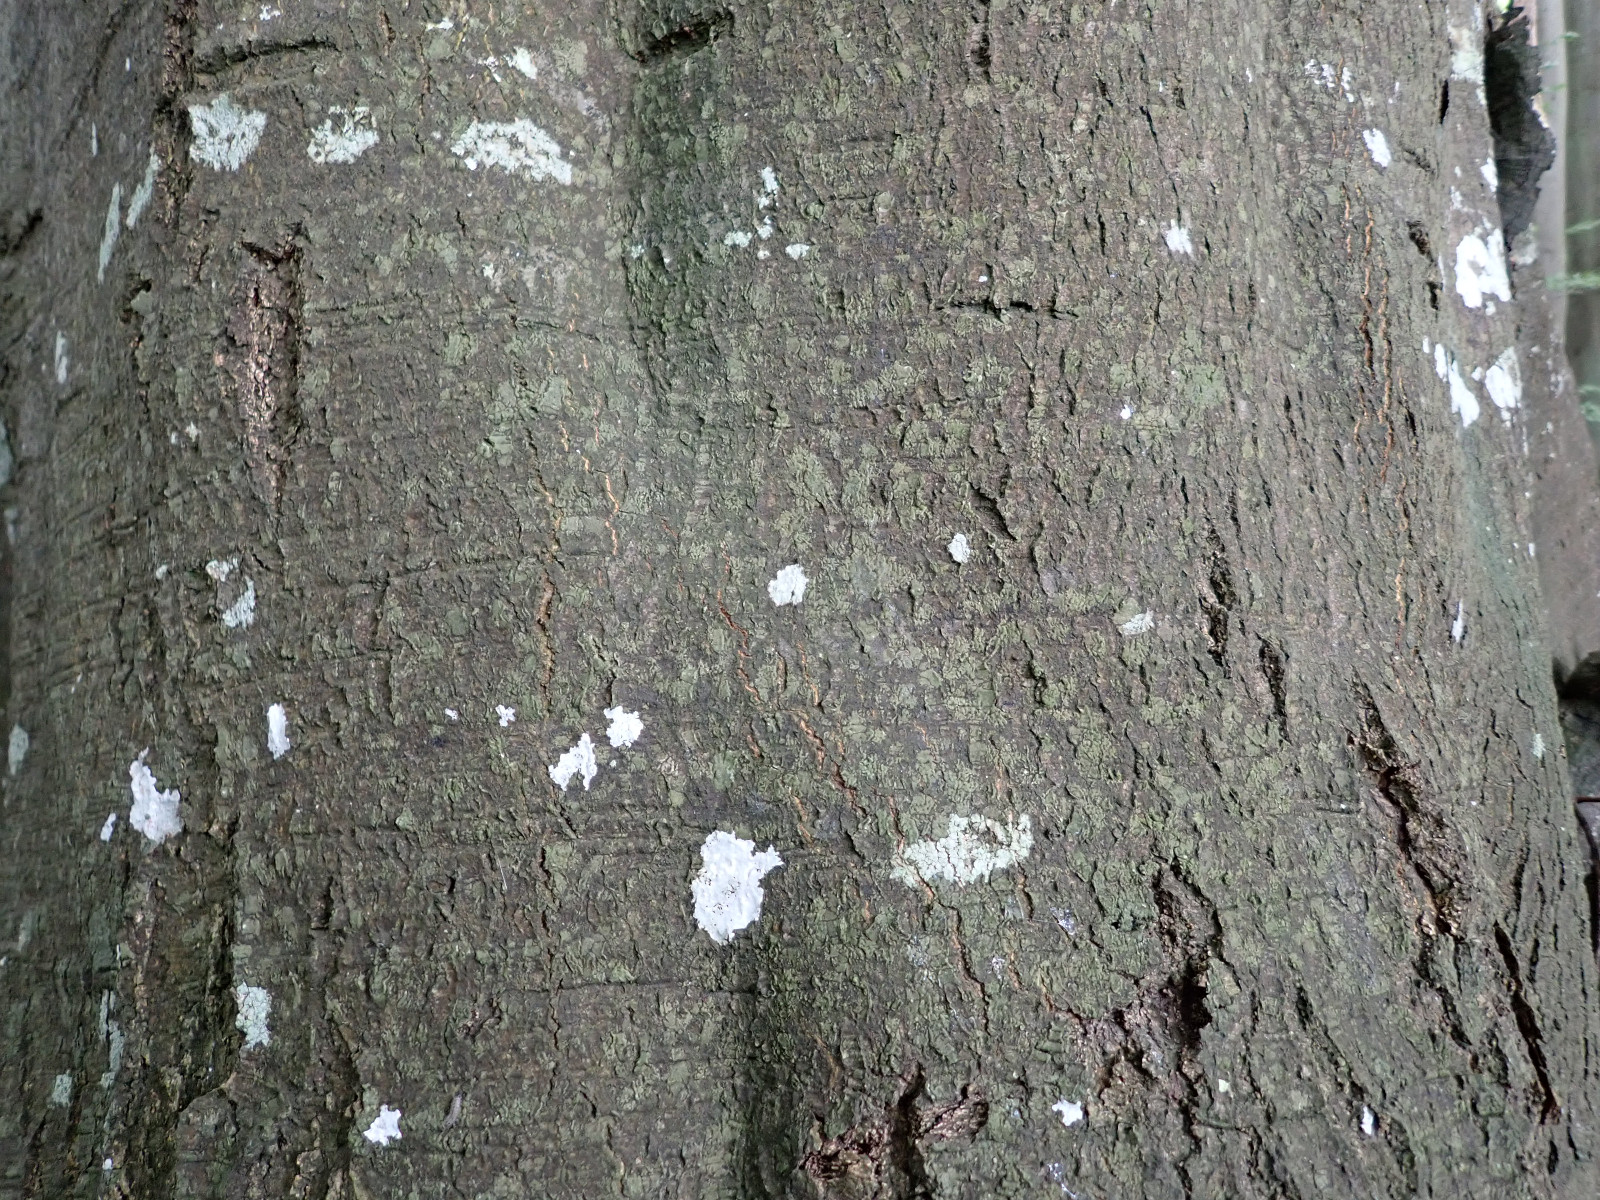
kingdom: Fungi
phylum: Ascomycota
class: Arthoniomycetes
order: Arthoniales
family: Roccellaceae
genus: Enterographa
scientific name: Enterographa crassa
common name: tyk prægelav
